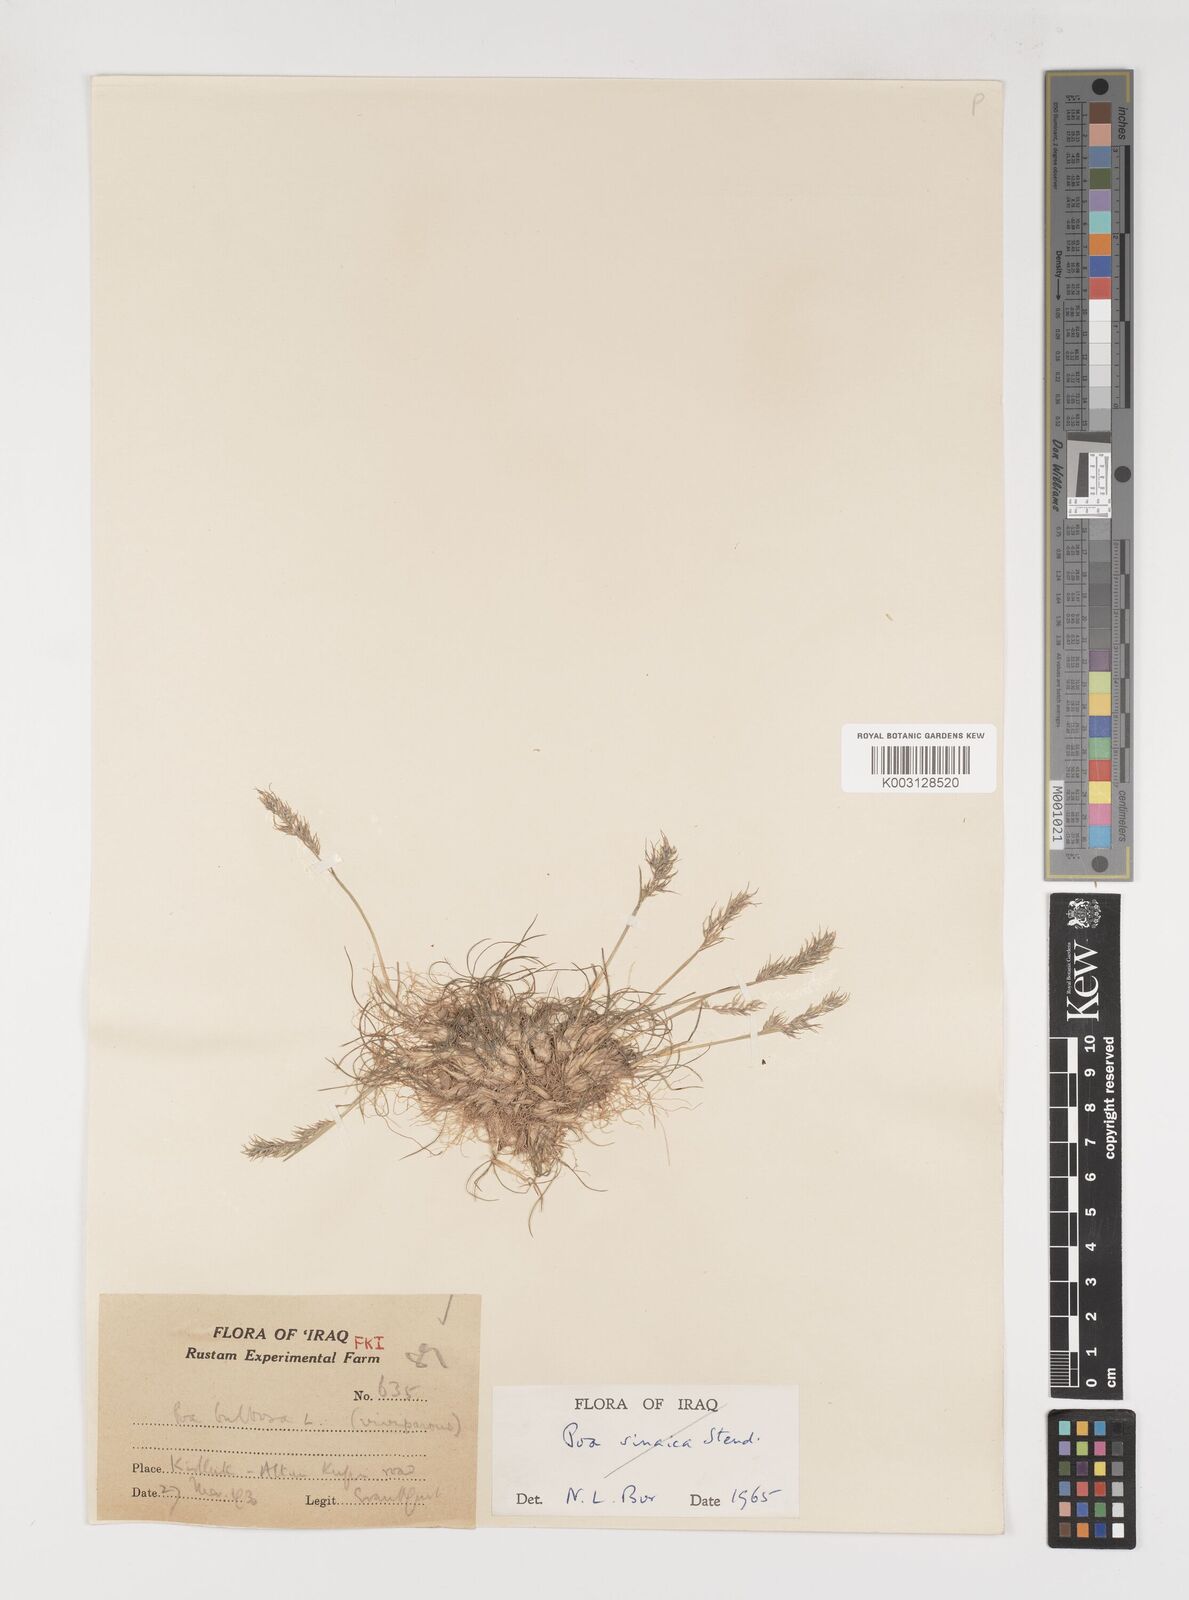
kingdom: Plantae
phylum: Tracheophyta
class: Liliopsida
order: Poales
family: Poaceae
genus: Poa
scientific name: Poa sinaica
